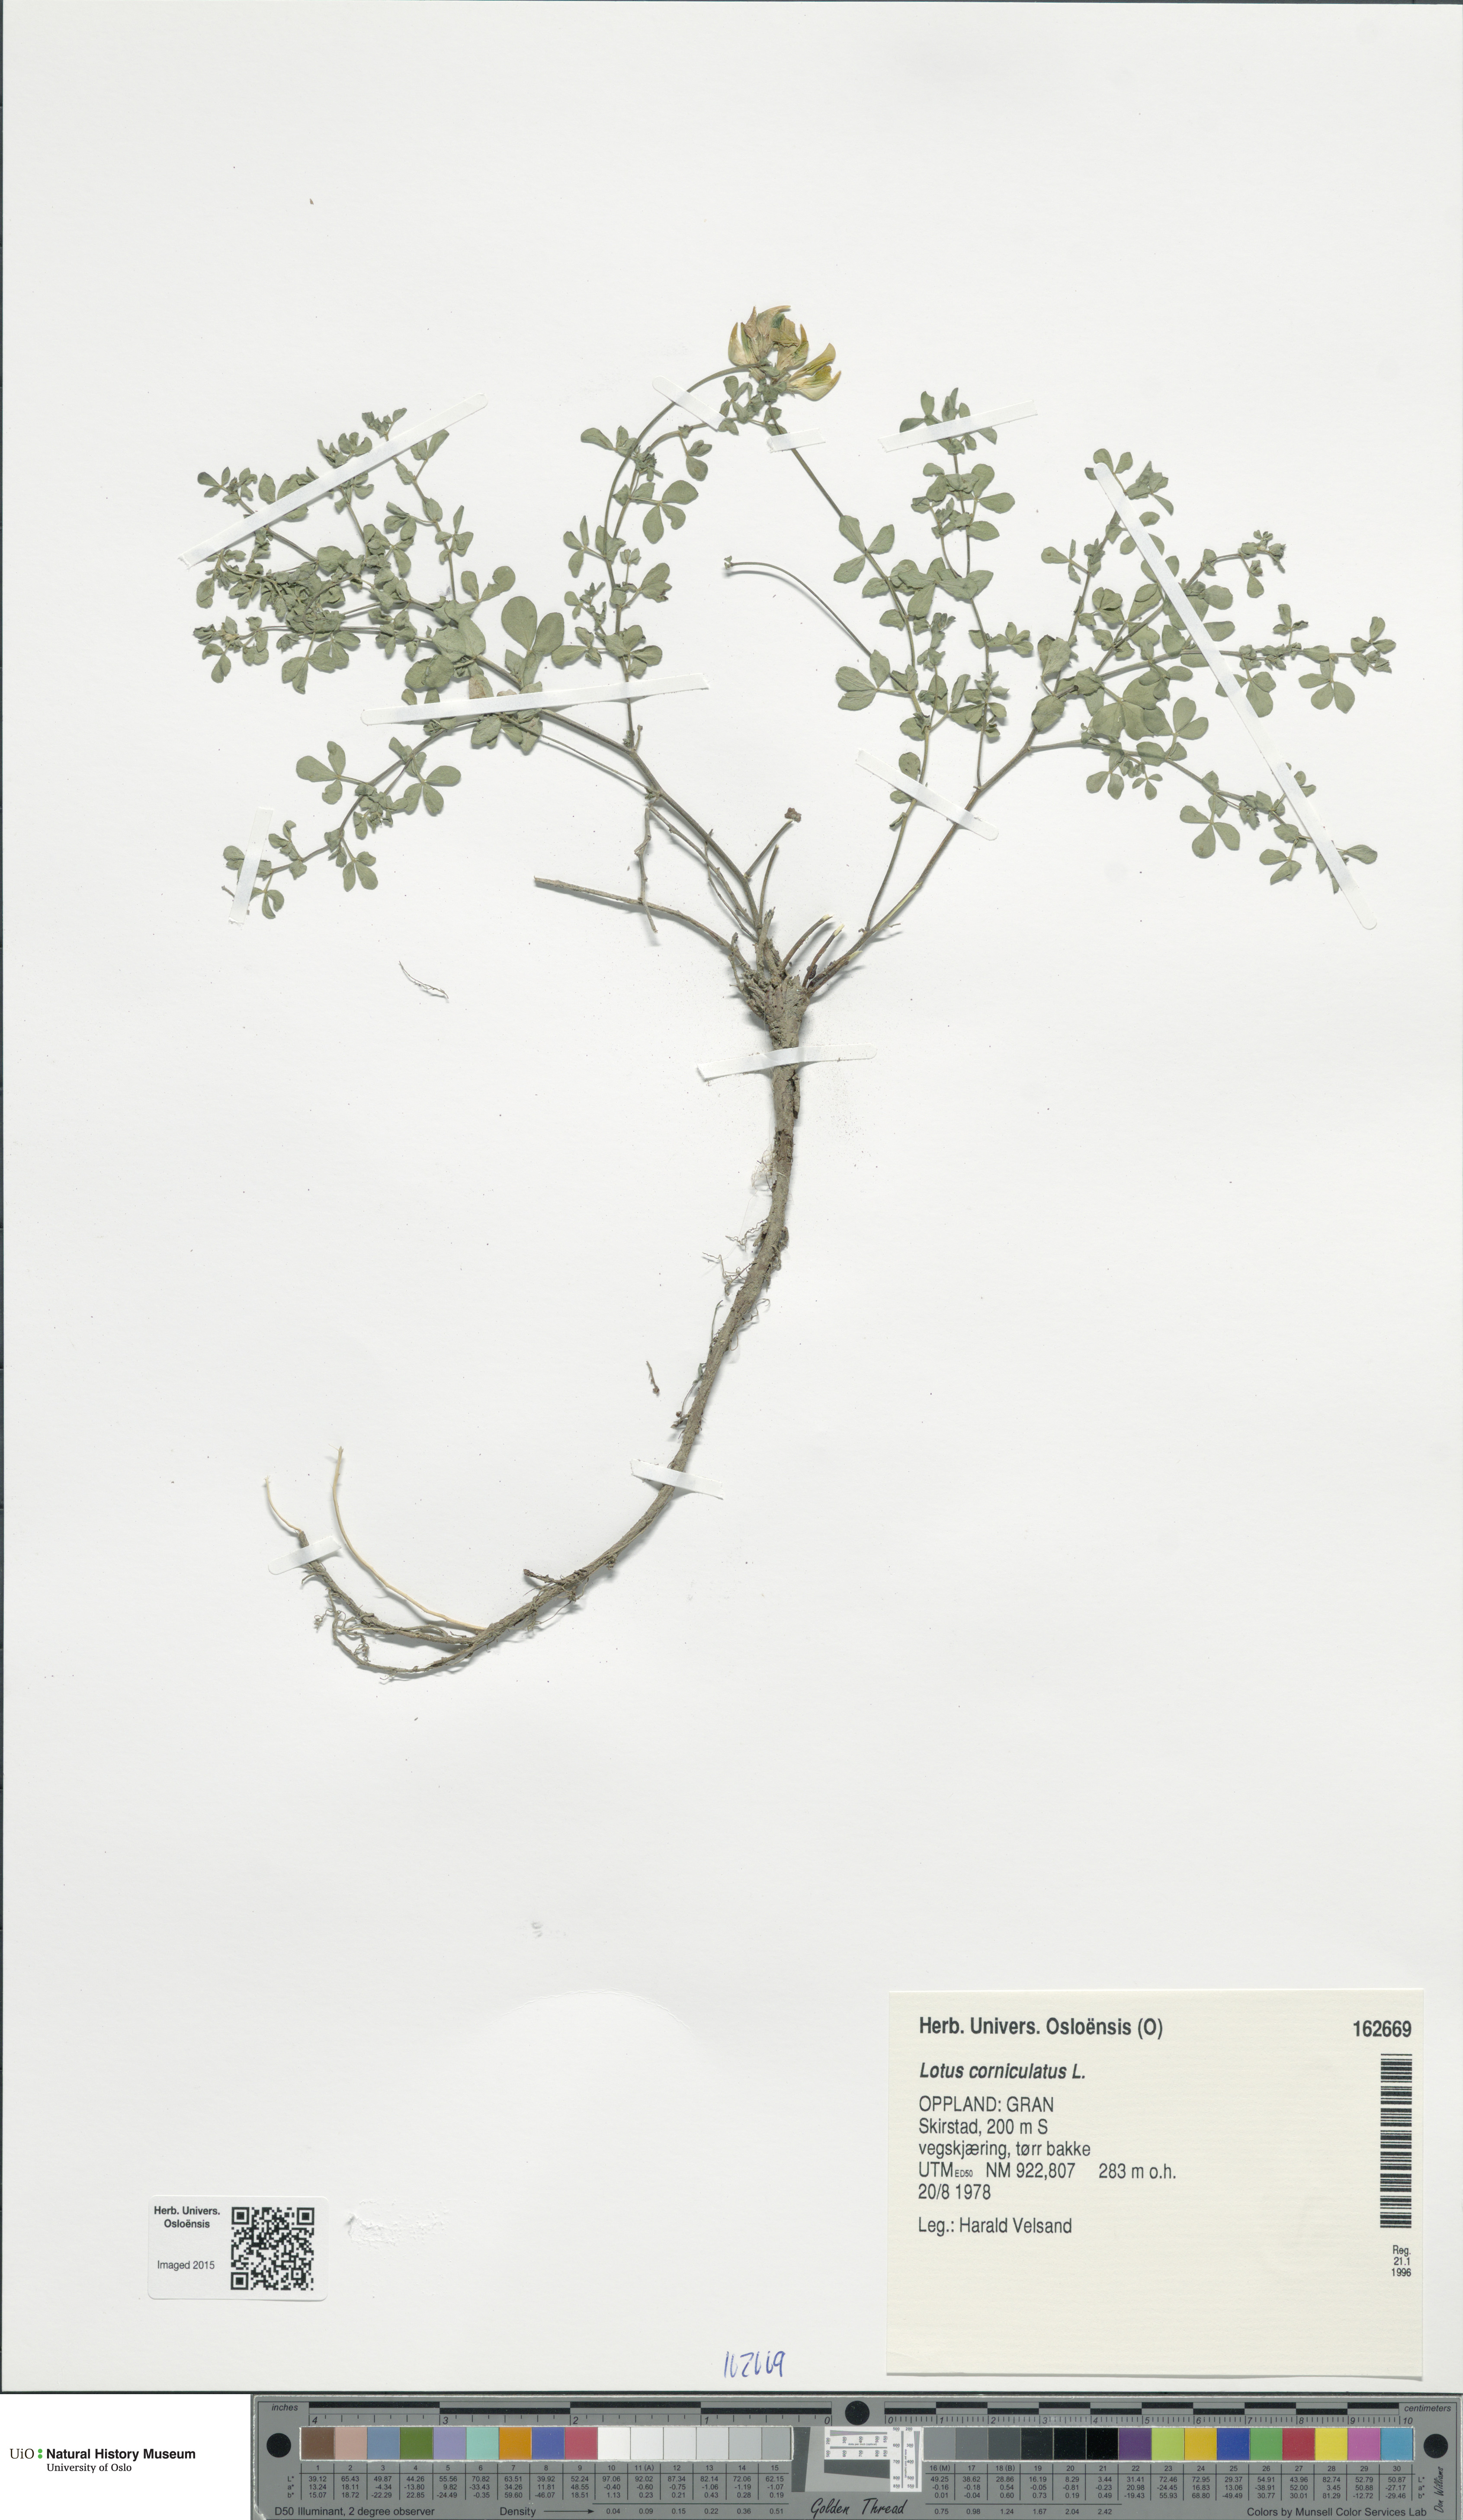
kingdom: Plantae
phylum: Tracheophyta
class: Magnoliopsida
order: Fabales
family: Fabaceae
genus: Lotus
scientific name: Lotus corniculatus
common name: Common bird's-foot-trefoil
